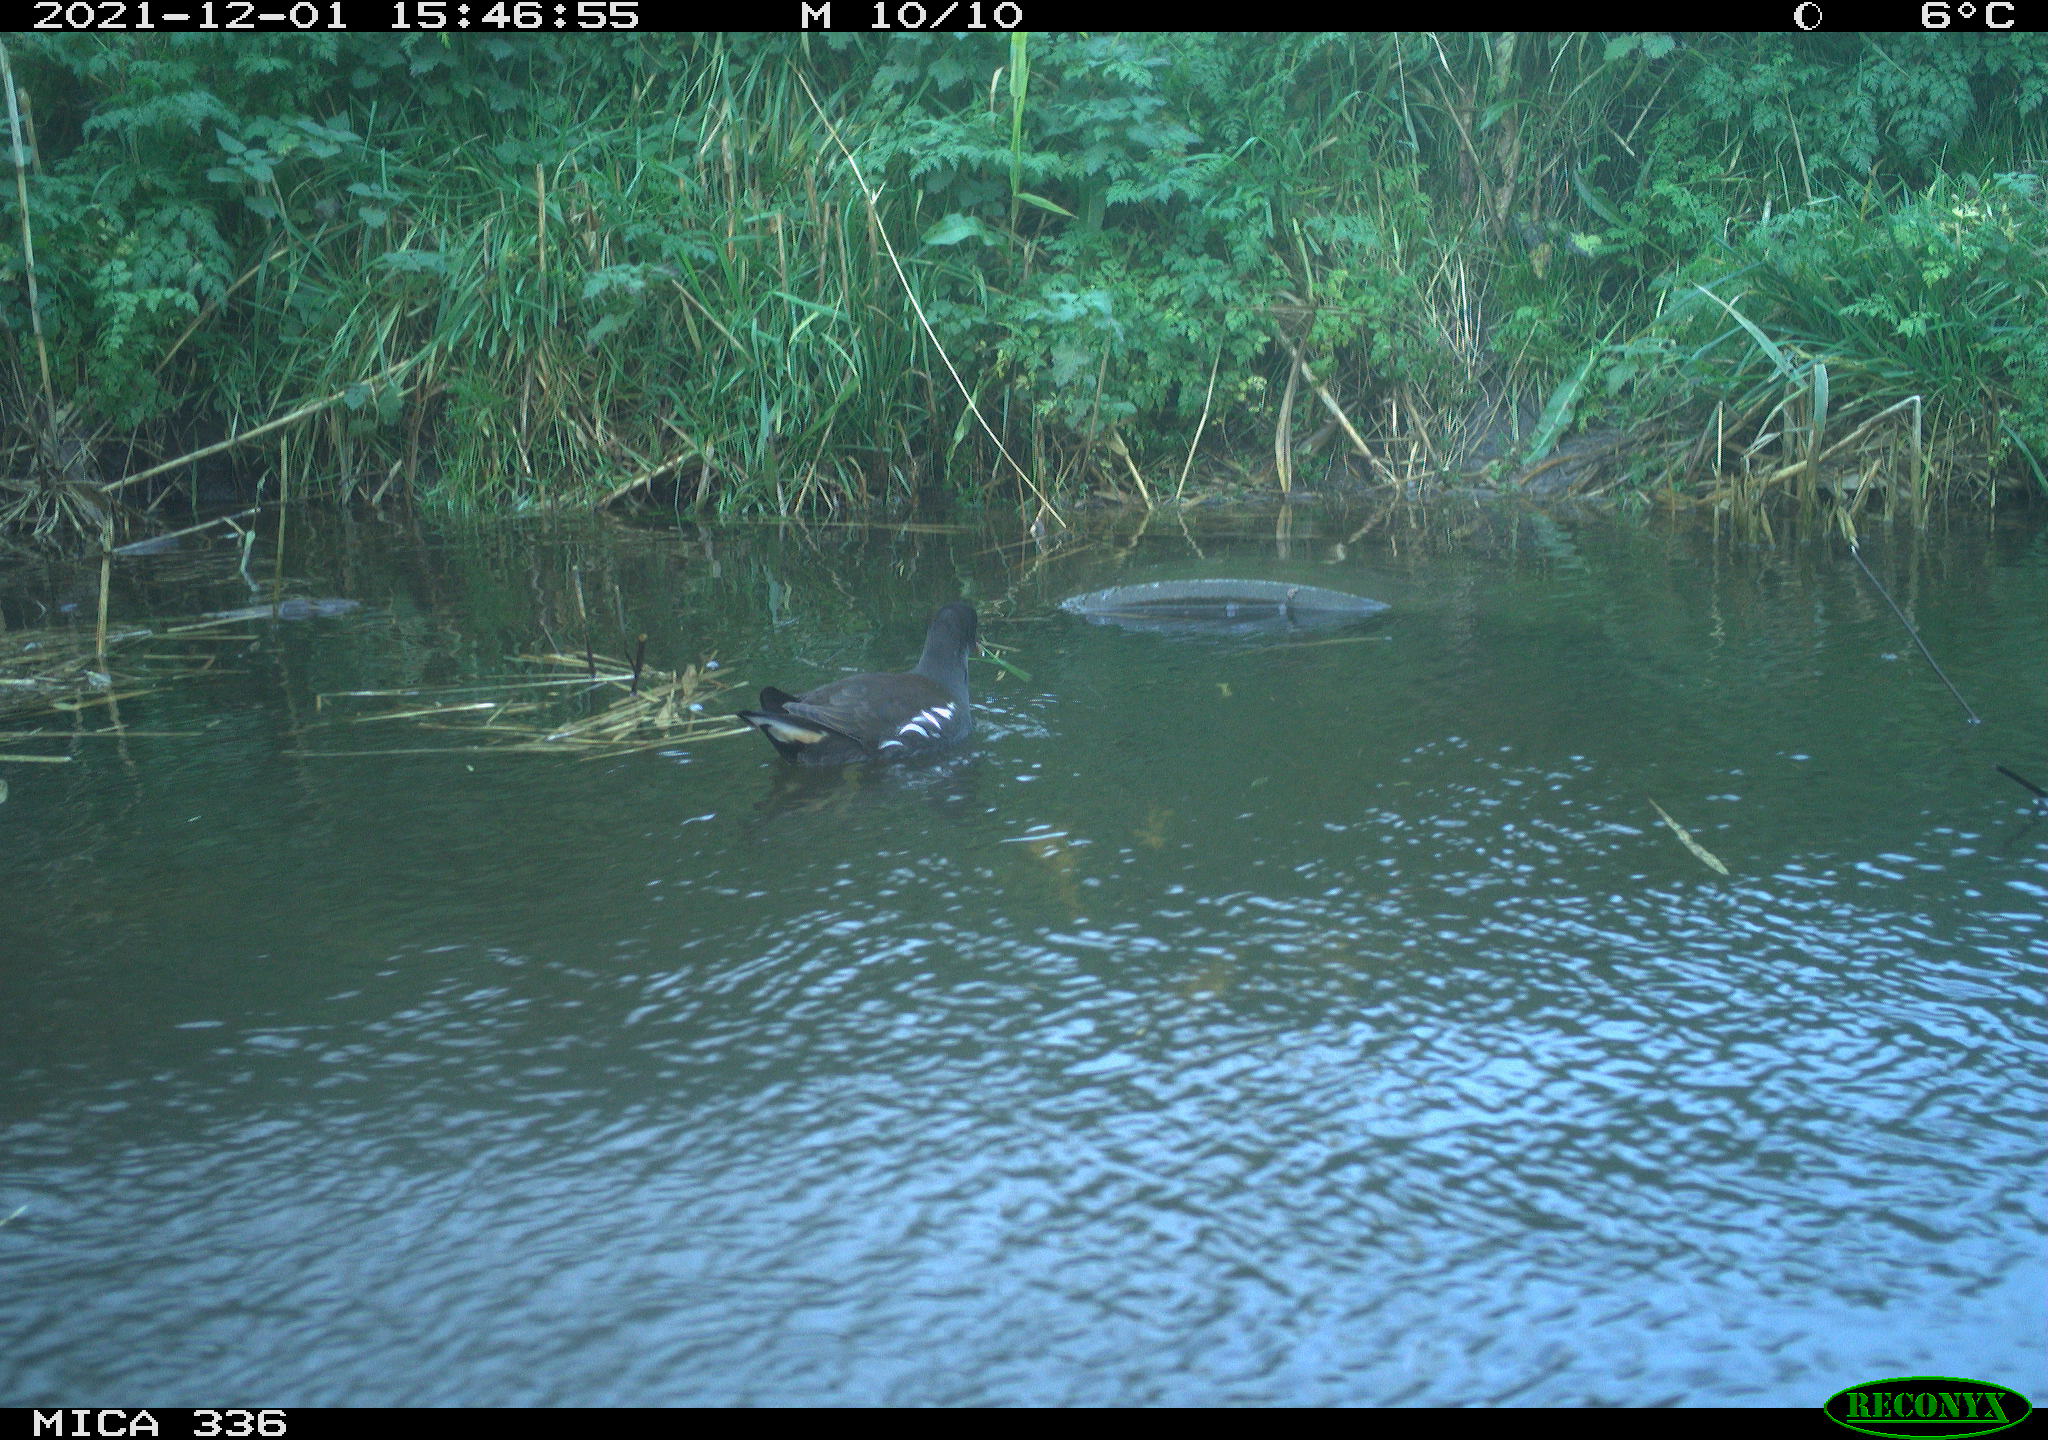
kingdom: Animalia
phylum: Chordata
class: Aves
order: Gruiformes
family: Rallidae
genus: Gallinula
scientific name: Gallinula chloropus
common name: Common moorhen
